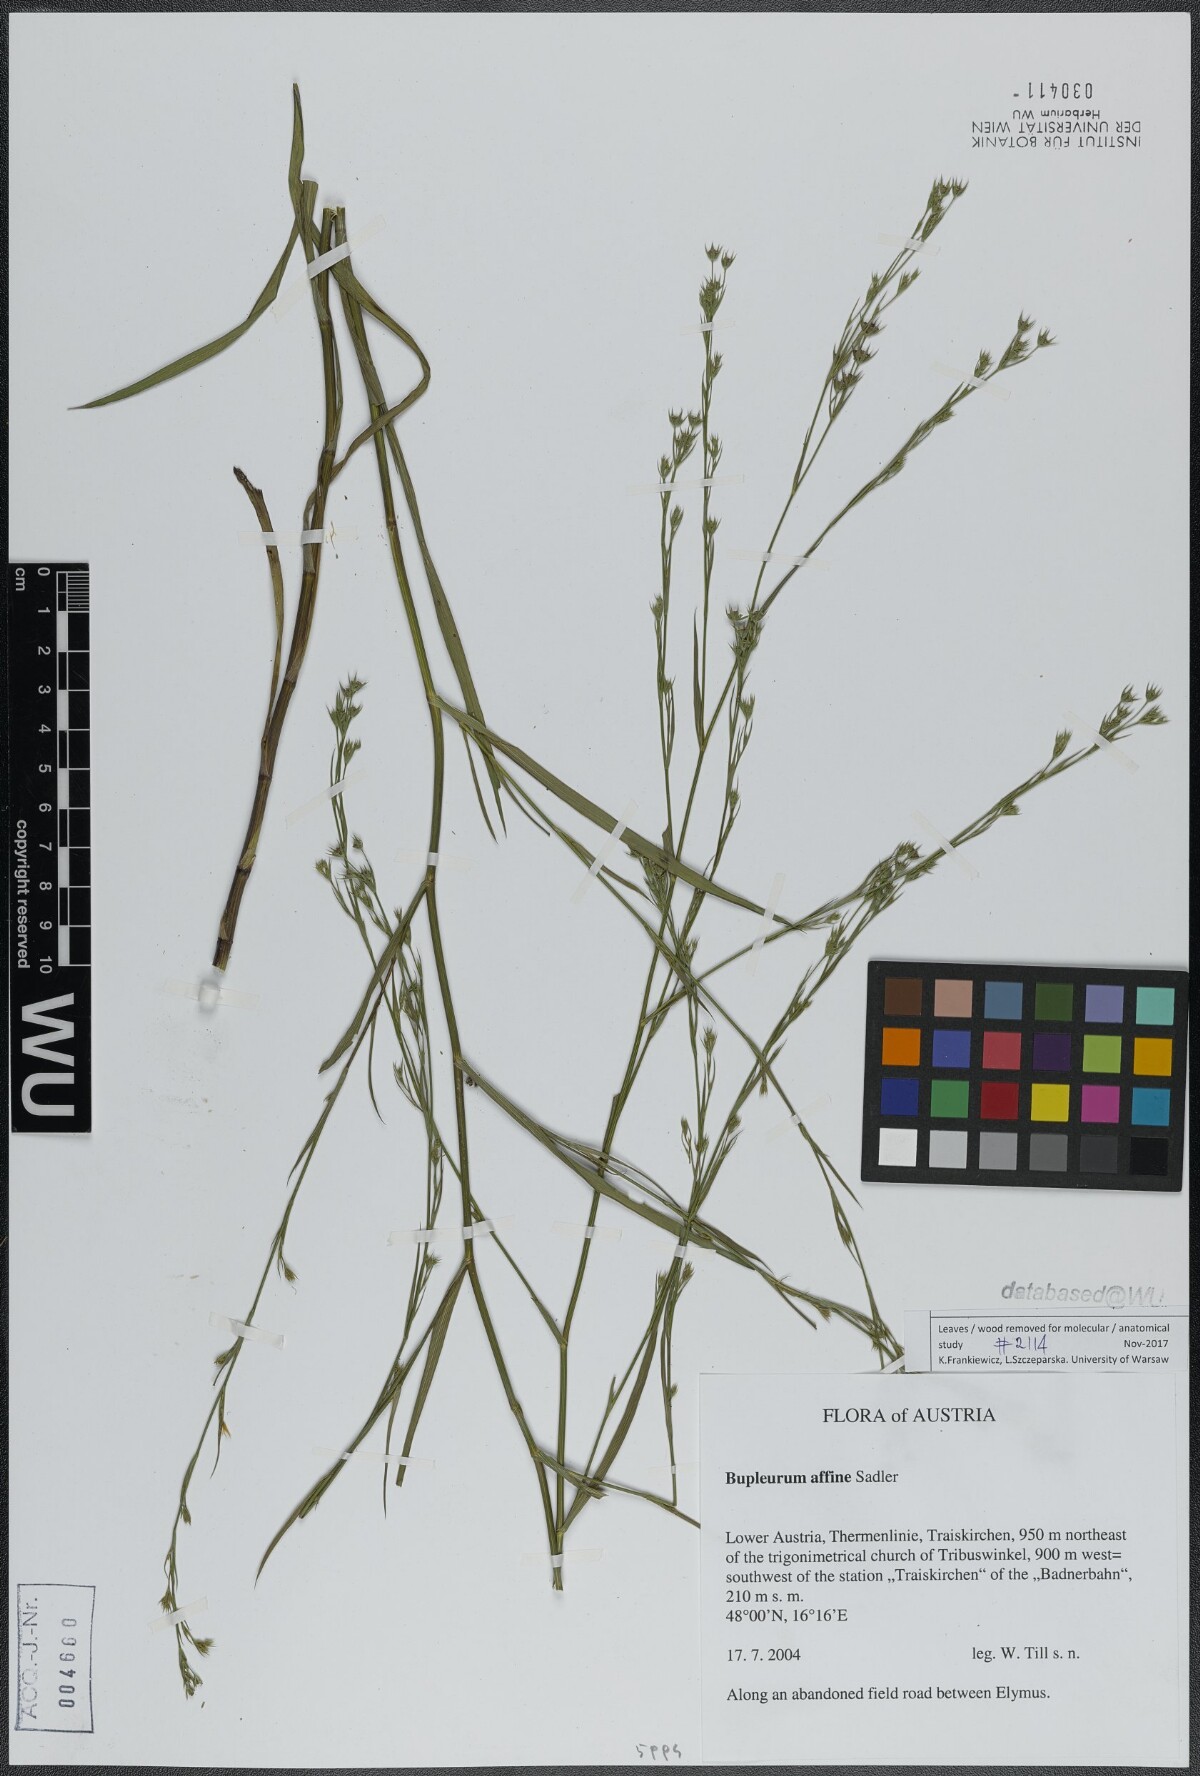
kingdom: Plantae
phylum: Tracheophyta
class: Magnoliopsida
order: Apiales
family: Apiaceae
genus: Bupleurum
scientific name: Bupleurum affine
